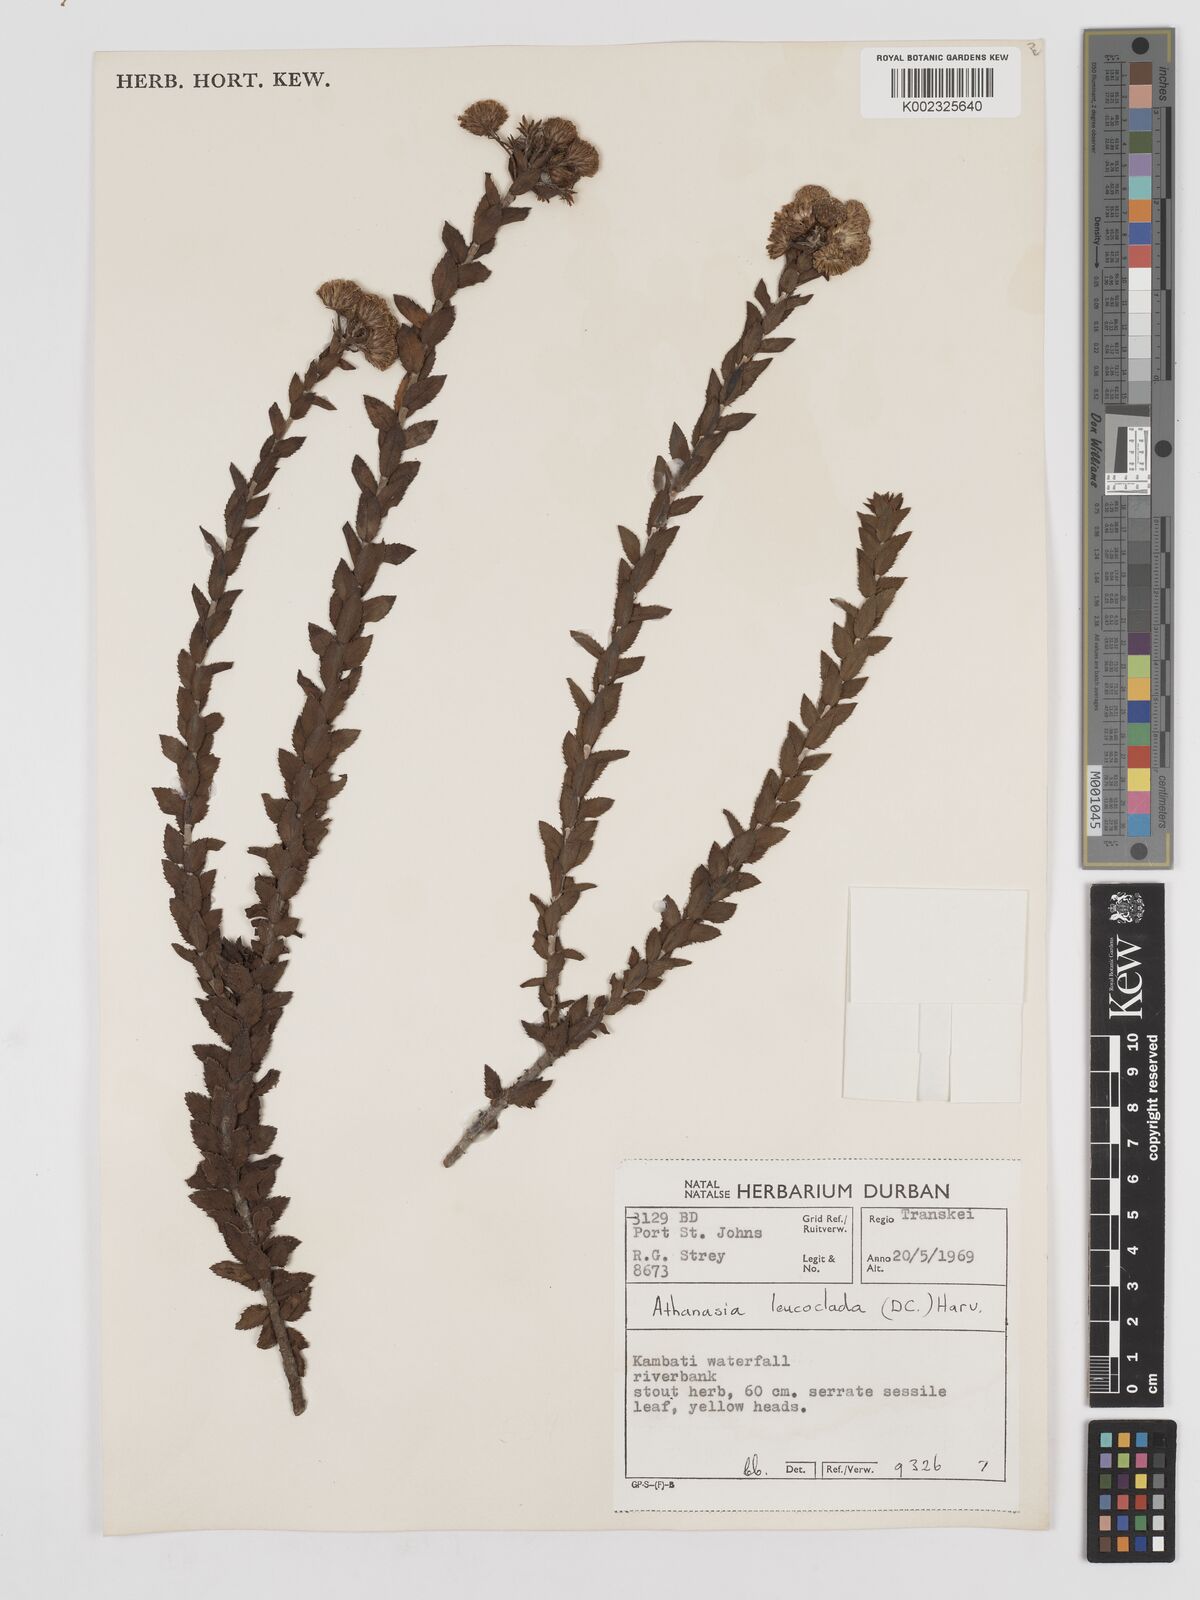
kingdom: Plantae
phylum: Tracheophyta
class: Magnoliopsida
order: Asterales
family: Asteraceae
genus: Inulanthera
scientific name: Inulanthera leucoclada
